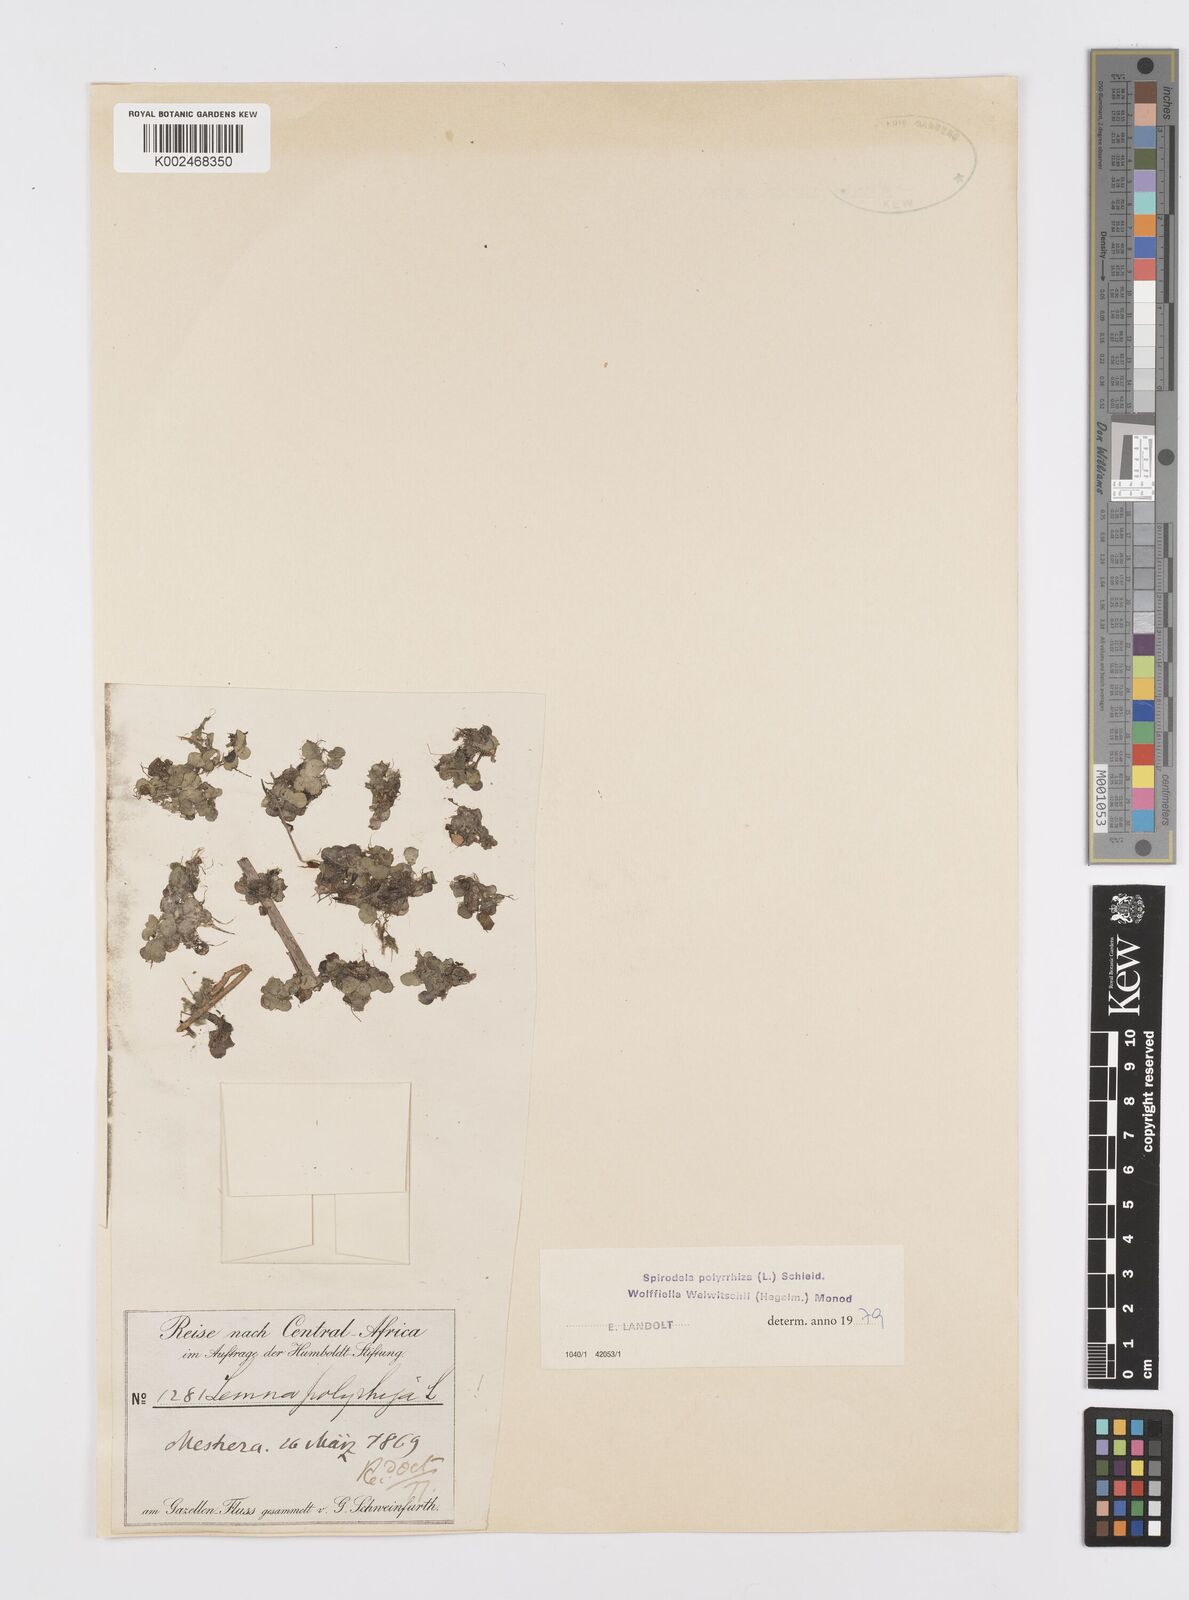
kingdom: Plantae
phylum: Tracheophyta
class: Liliopsida
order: Alismatales
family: Araceae
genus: Wolffiella
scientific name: Wolffiella welwitschii
